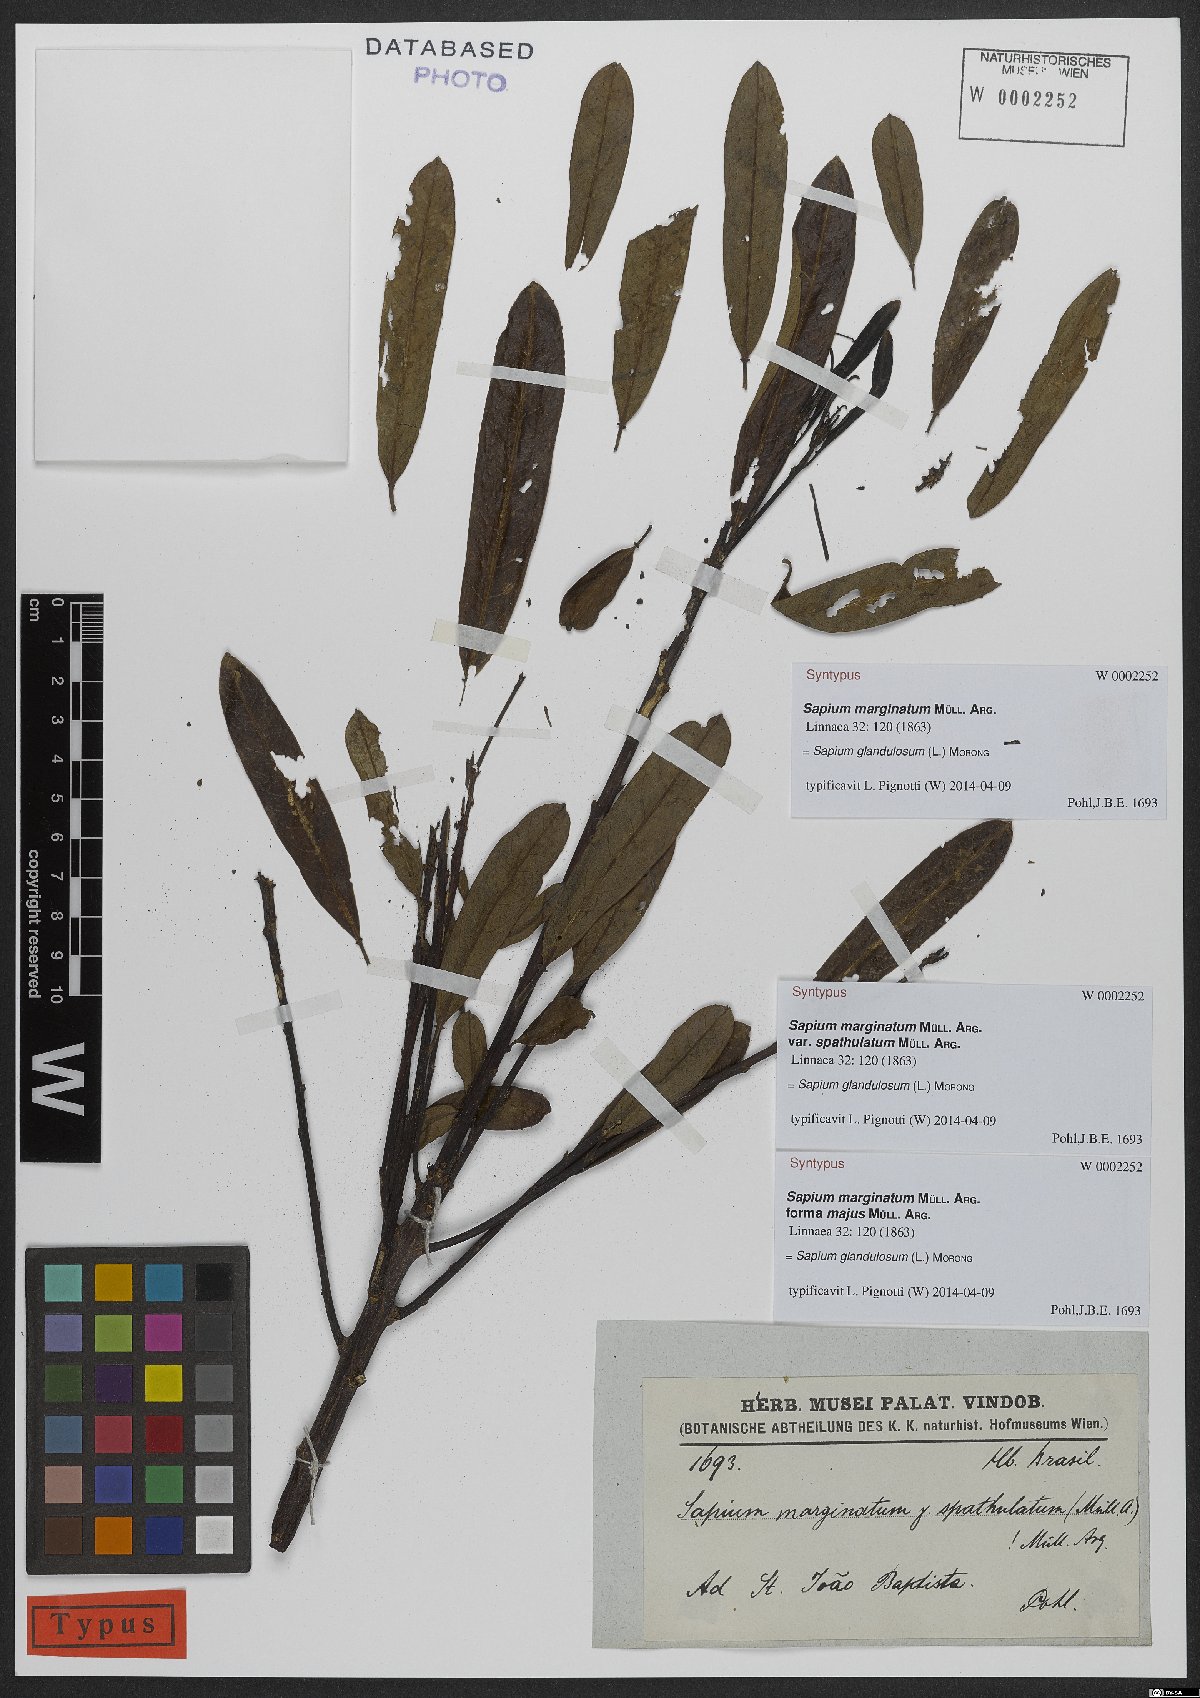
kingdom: Plantae
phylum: Tracheophyta
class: Magnoliopsida
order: Malpighiales
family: Euphorbiaceae
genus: Sapium
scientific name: Sapium glandulosum
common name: Milktree
